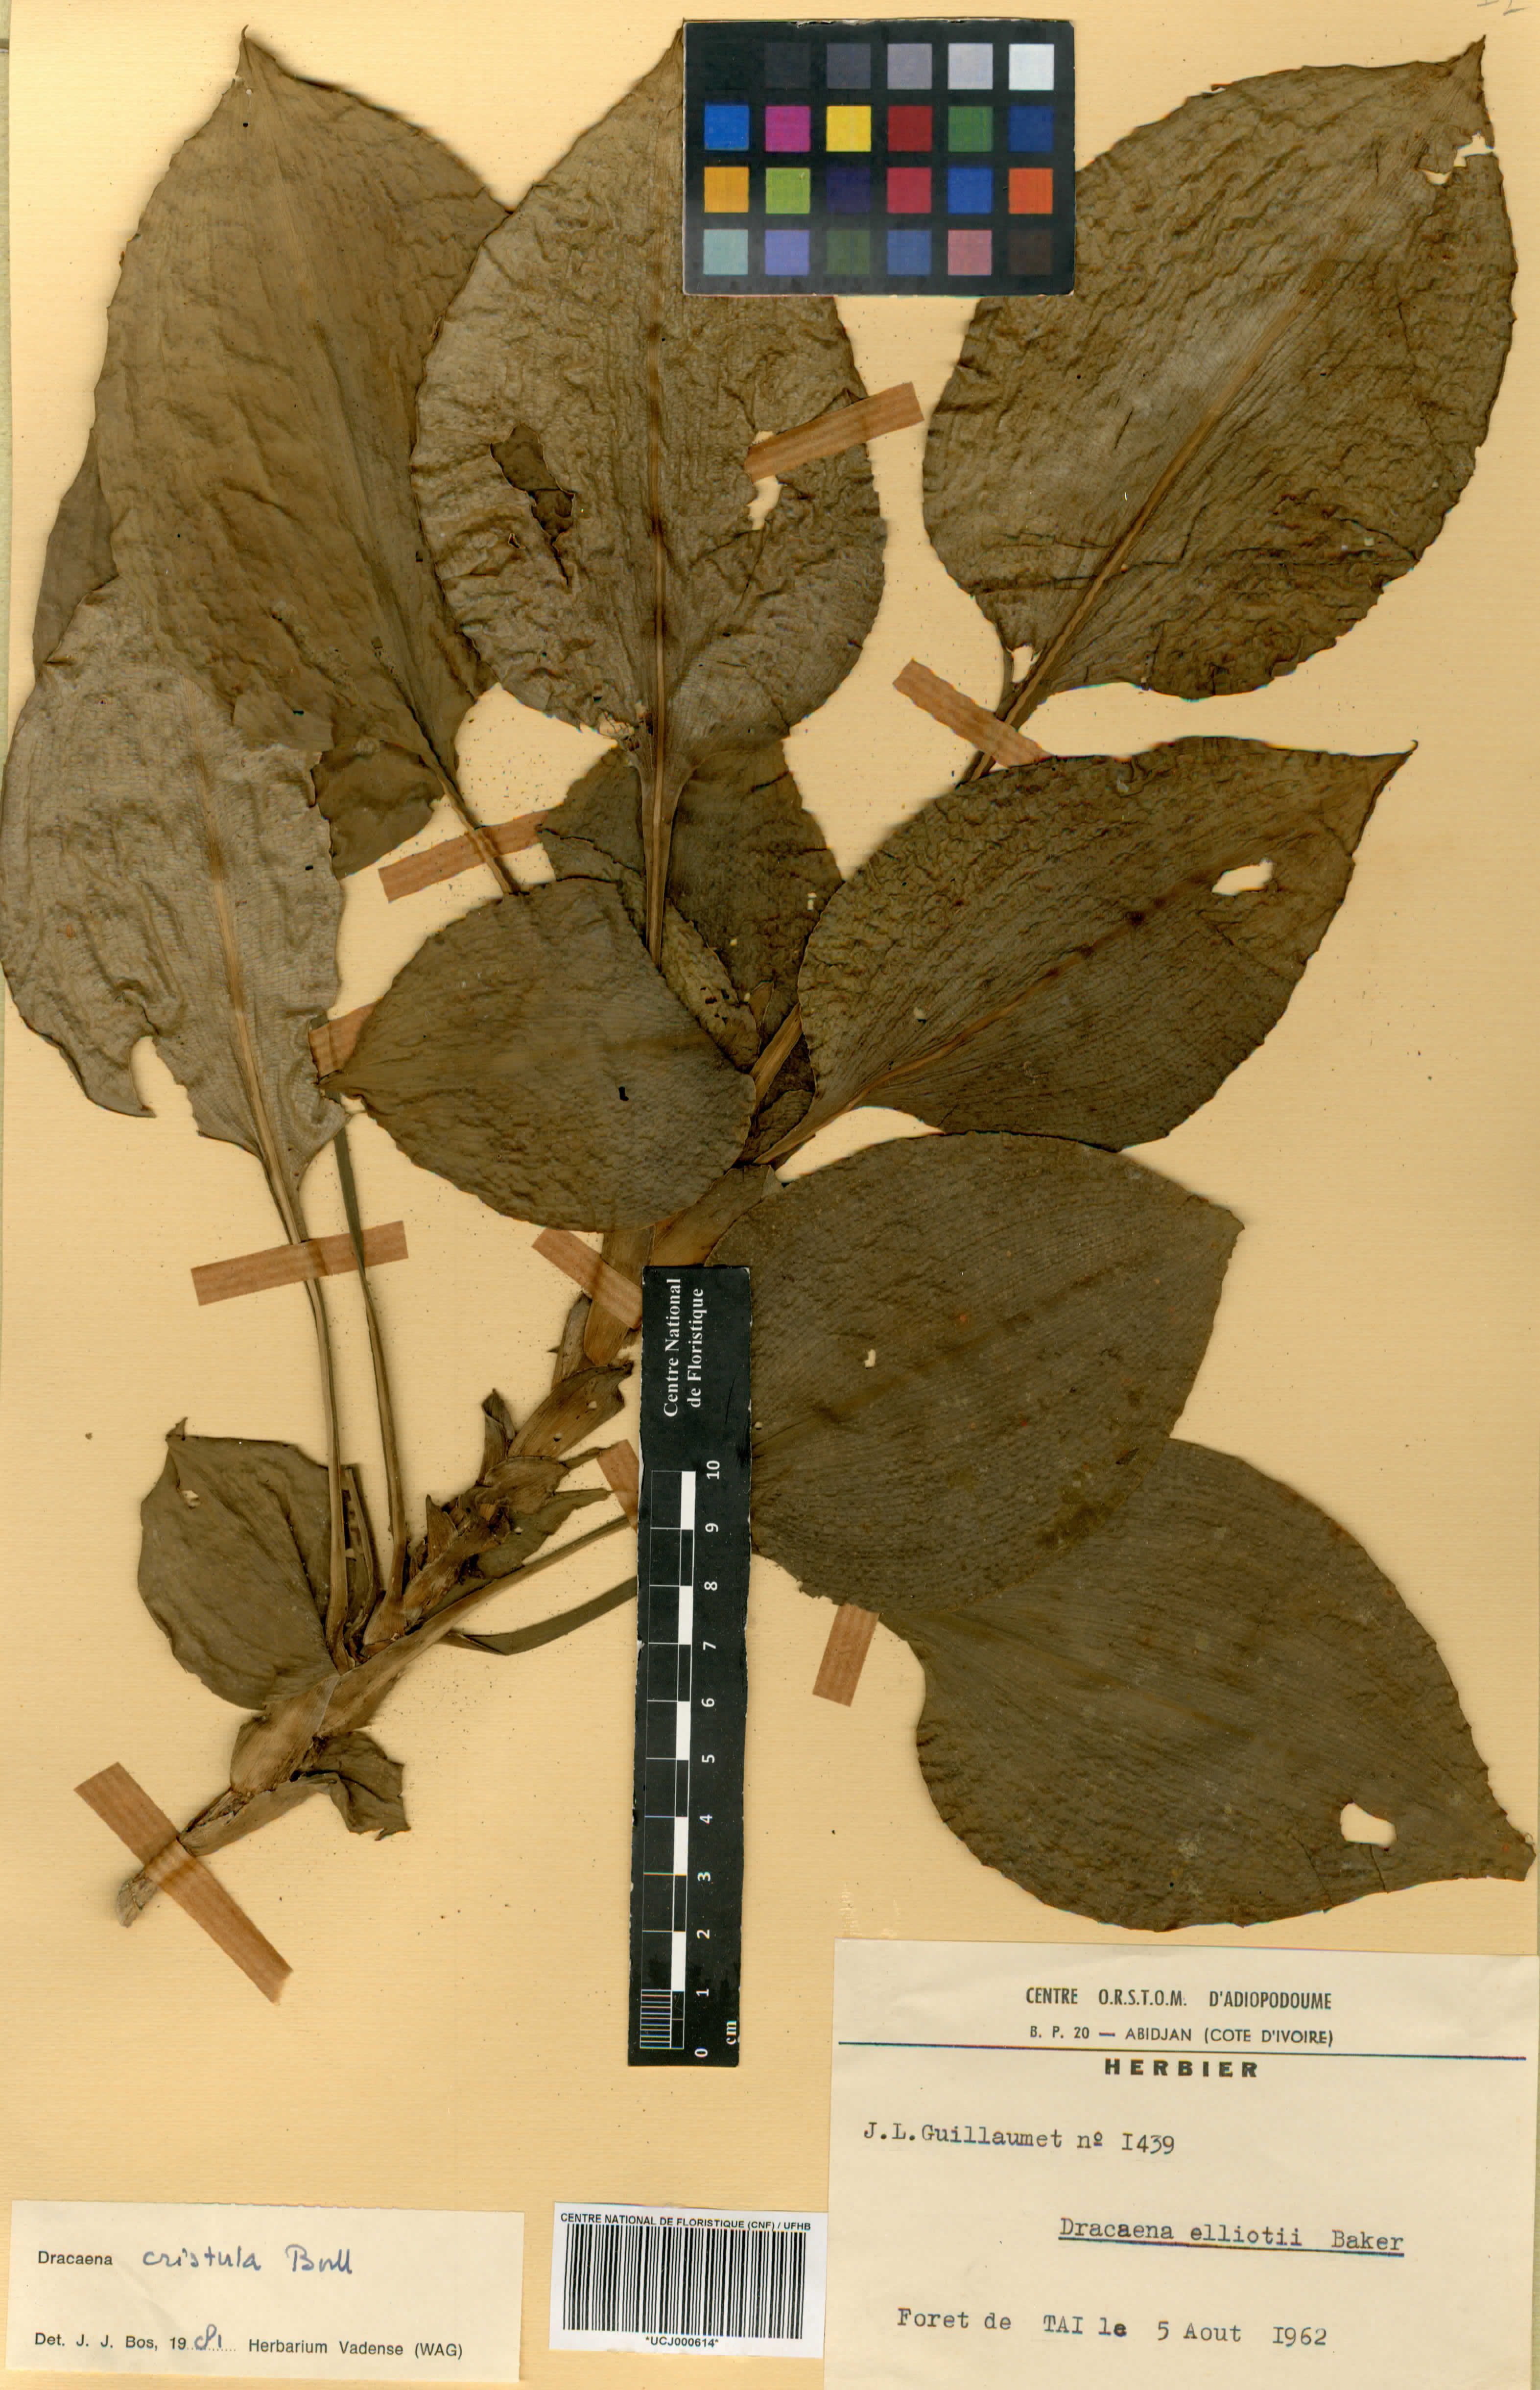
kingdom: Plantae
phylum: Tracheophyta
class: Liliopsida
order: Asparagales
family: Asparagaceae
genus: Dracaena
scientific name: Dracaena cristula
